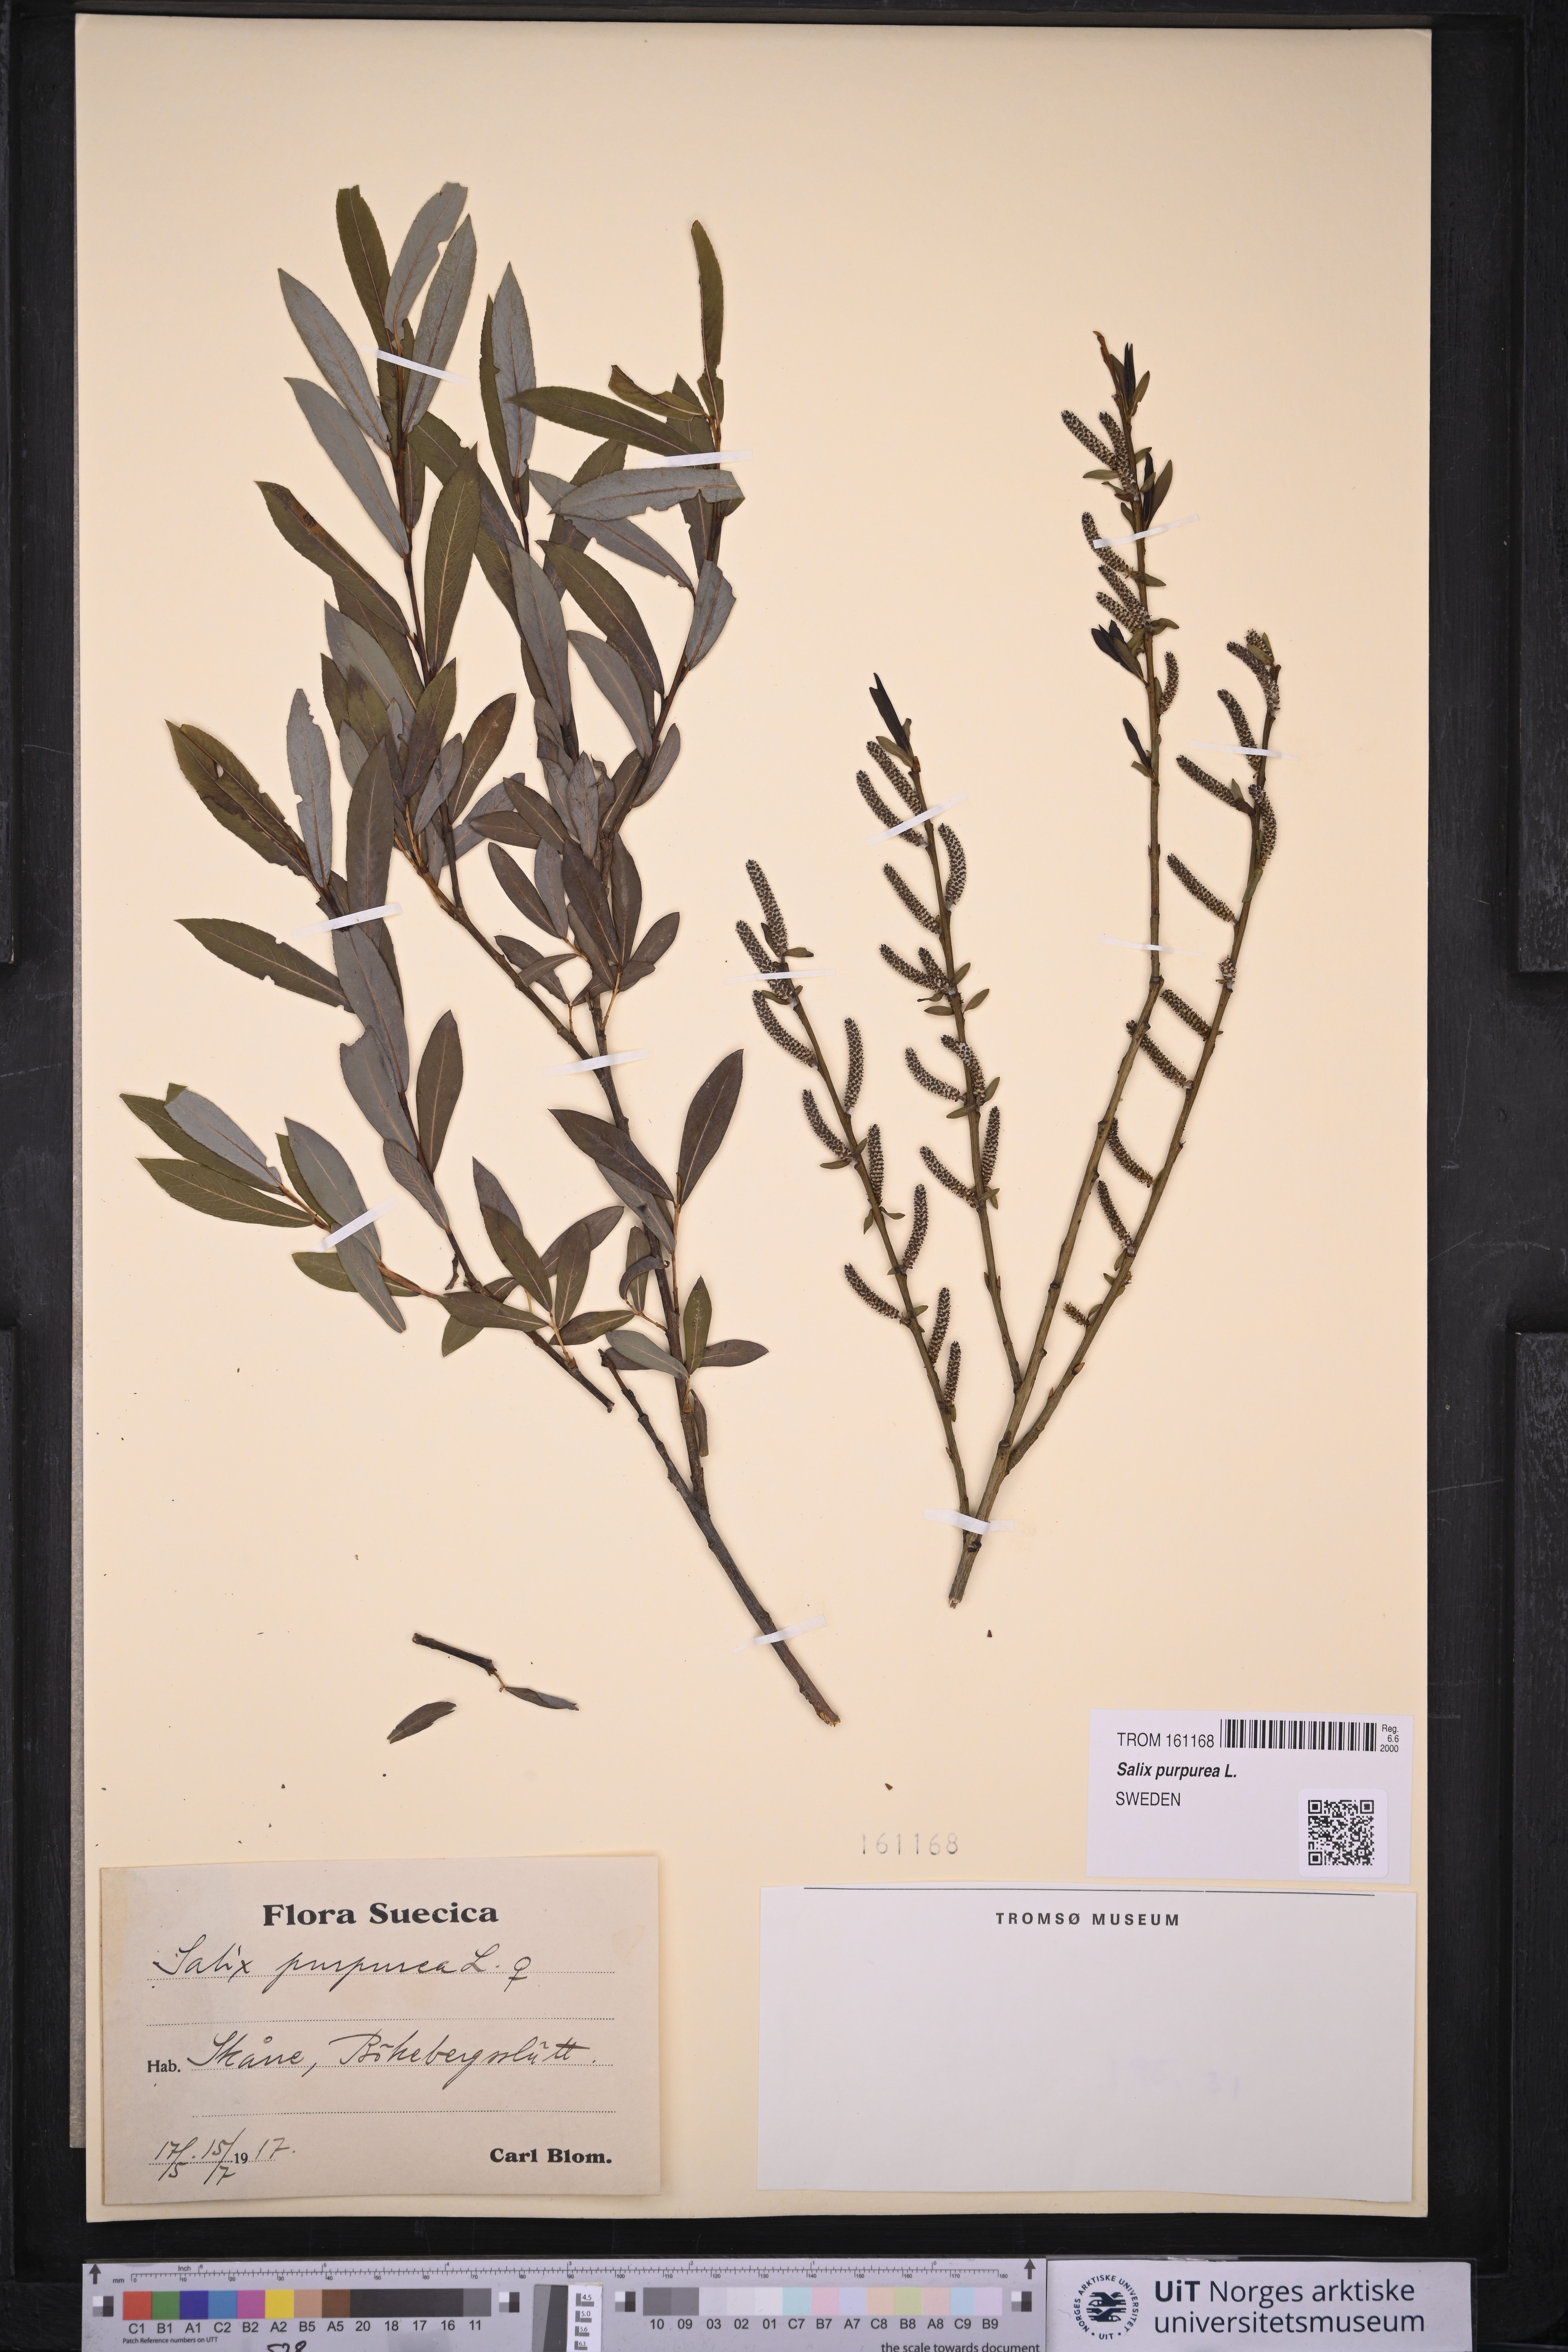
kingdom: Plantae
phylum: Tracheophyta
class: Magnoliopsida
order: Malpighiales
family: Salicaceae
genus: Salix
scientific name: Salix purpurea
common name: Purple willow
